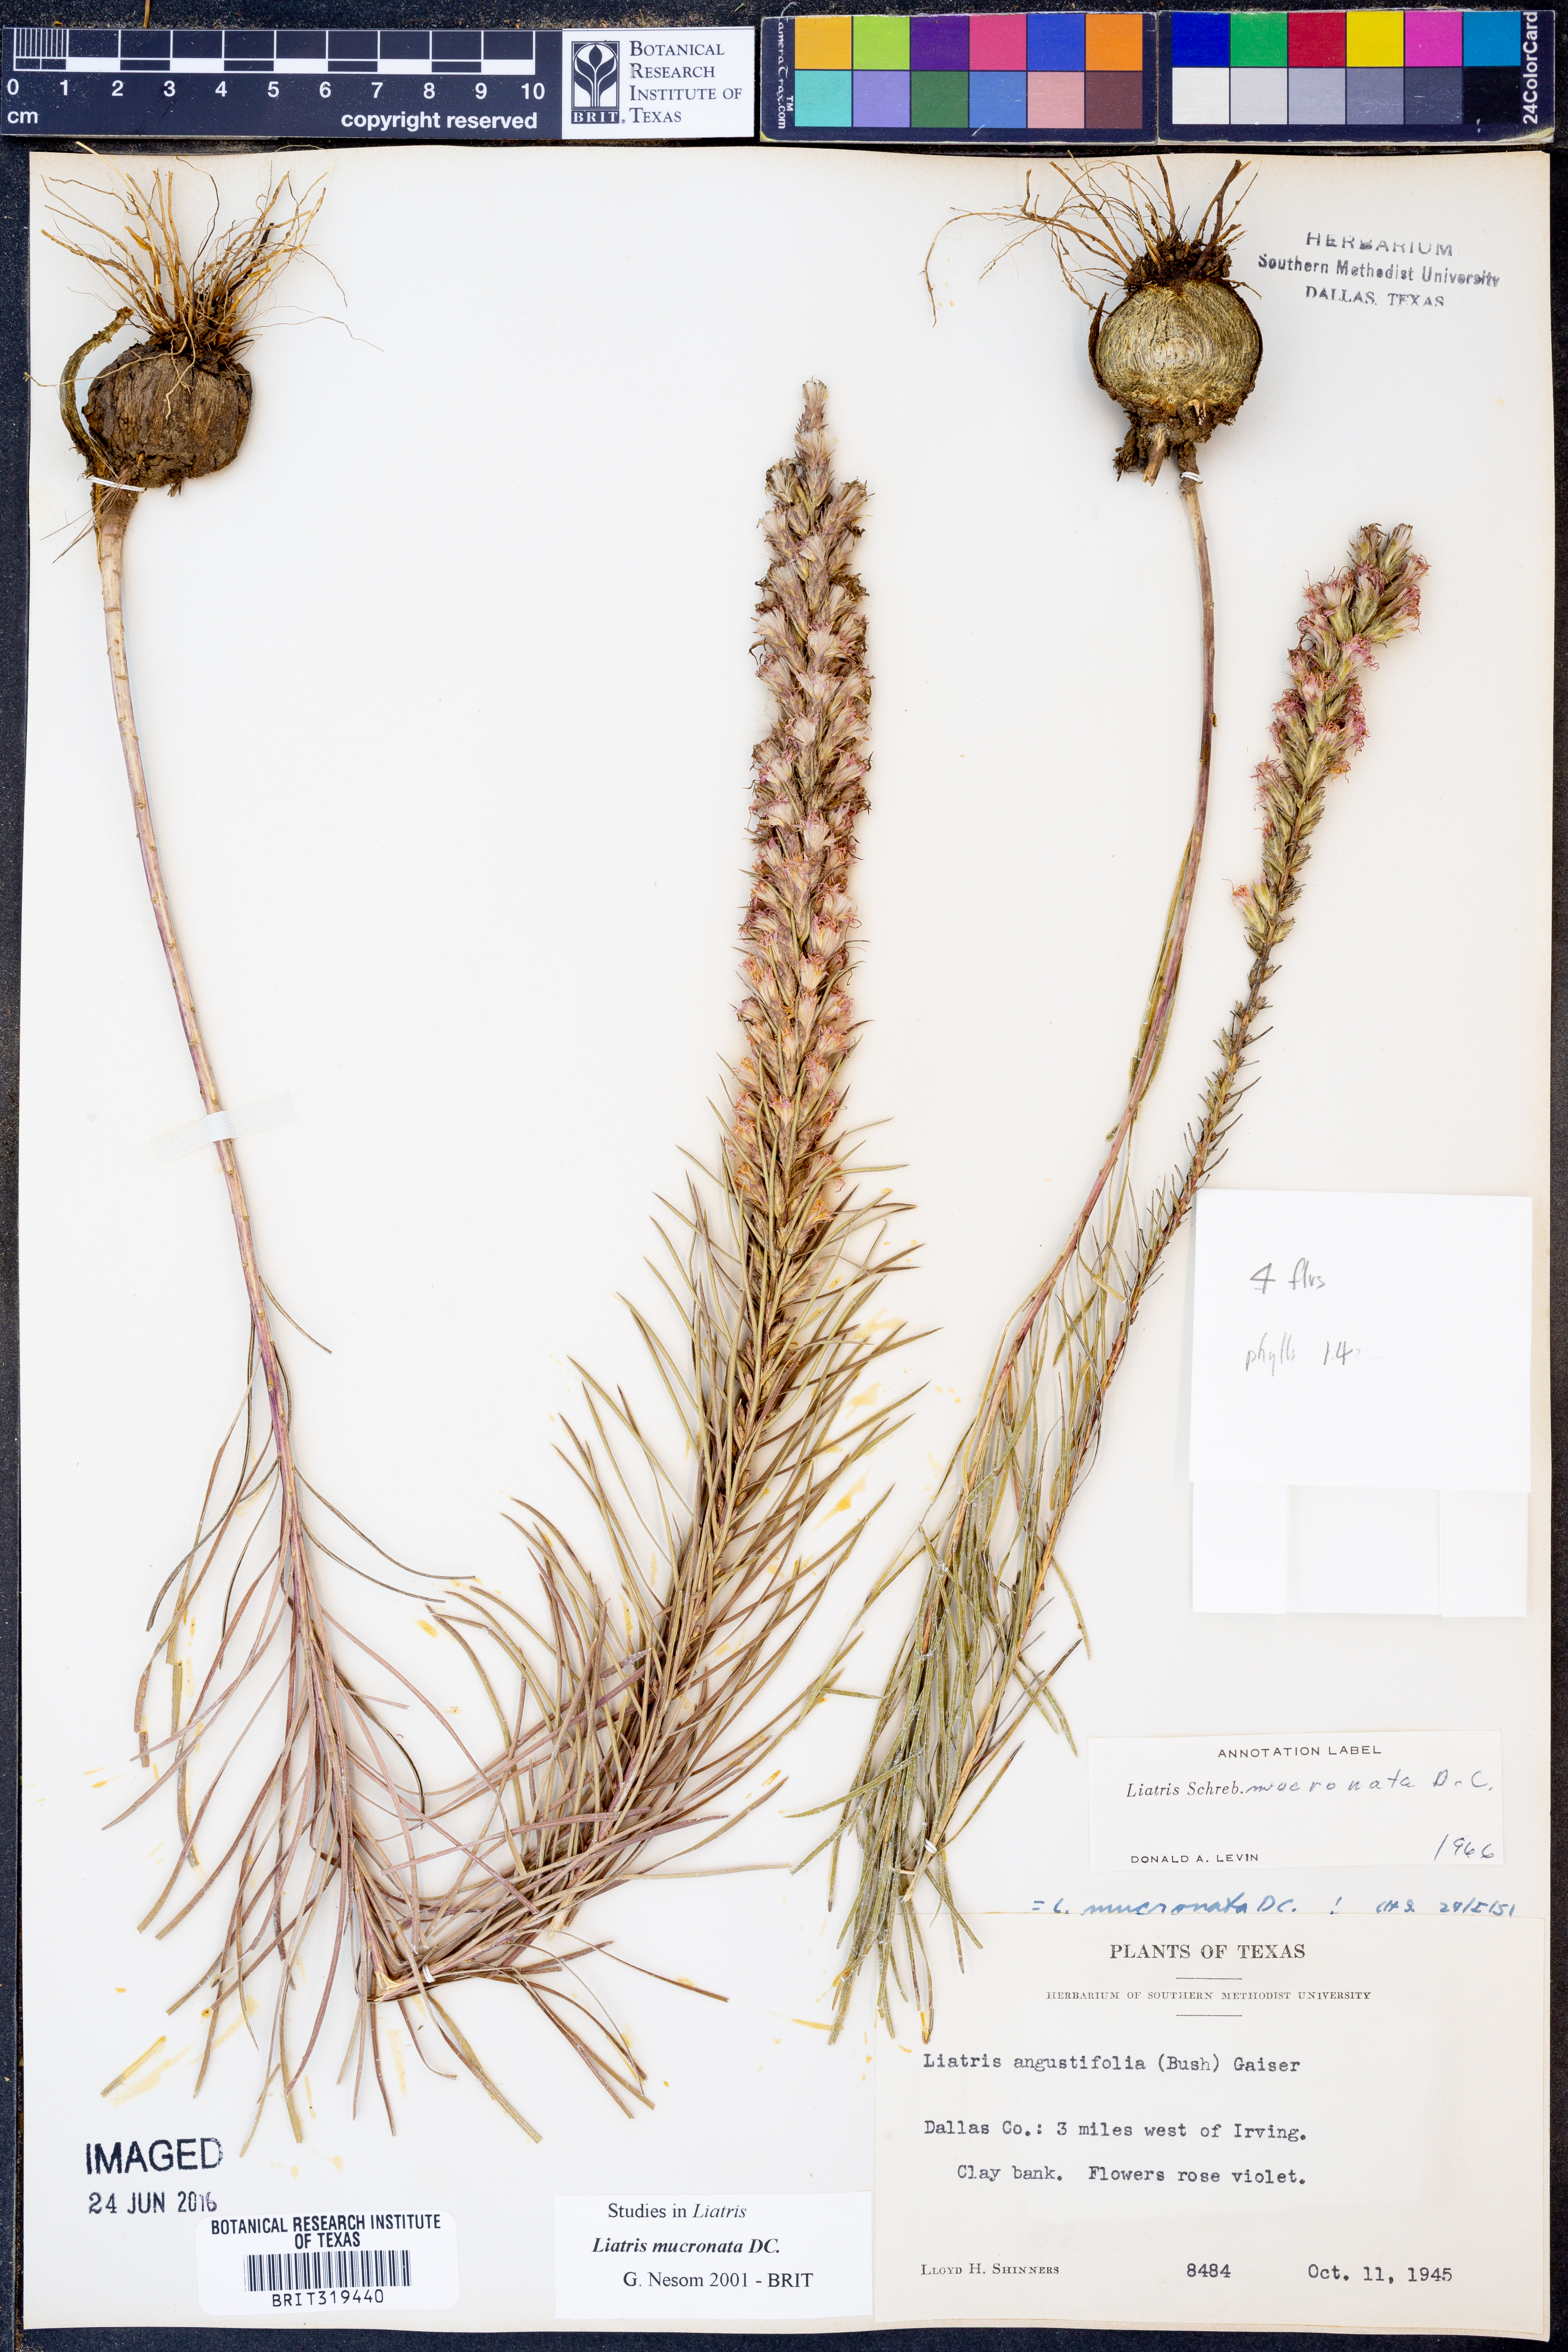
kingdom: Plantae
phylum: Tracheophyta
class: Magnoliopsida
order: Asterales
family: Asteraceae
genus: Liatris
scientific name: Liatris mucronata
